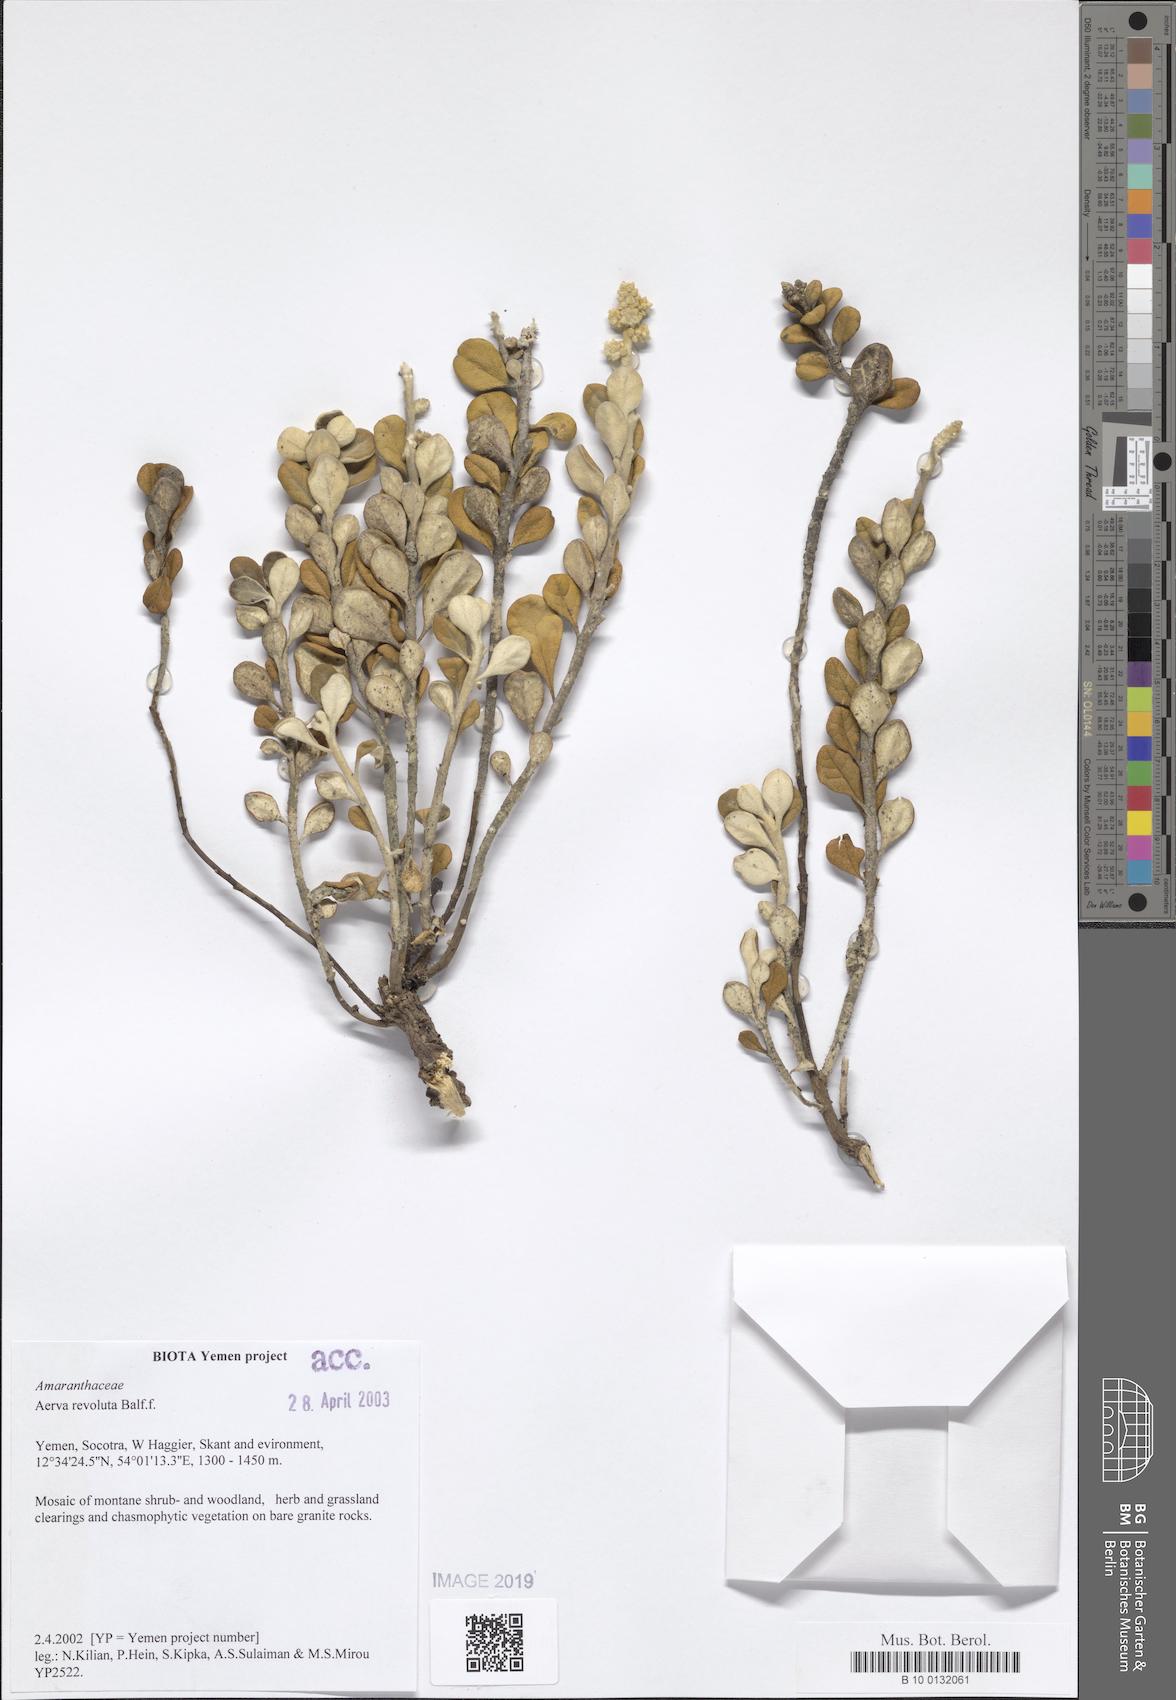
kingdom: Plantae
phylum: Tracheophyta
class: Magnoliopsida
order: Caryophyllales
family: Amaranthaceae
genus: Paraerva
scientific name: Paraerva revoluta
